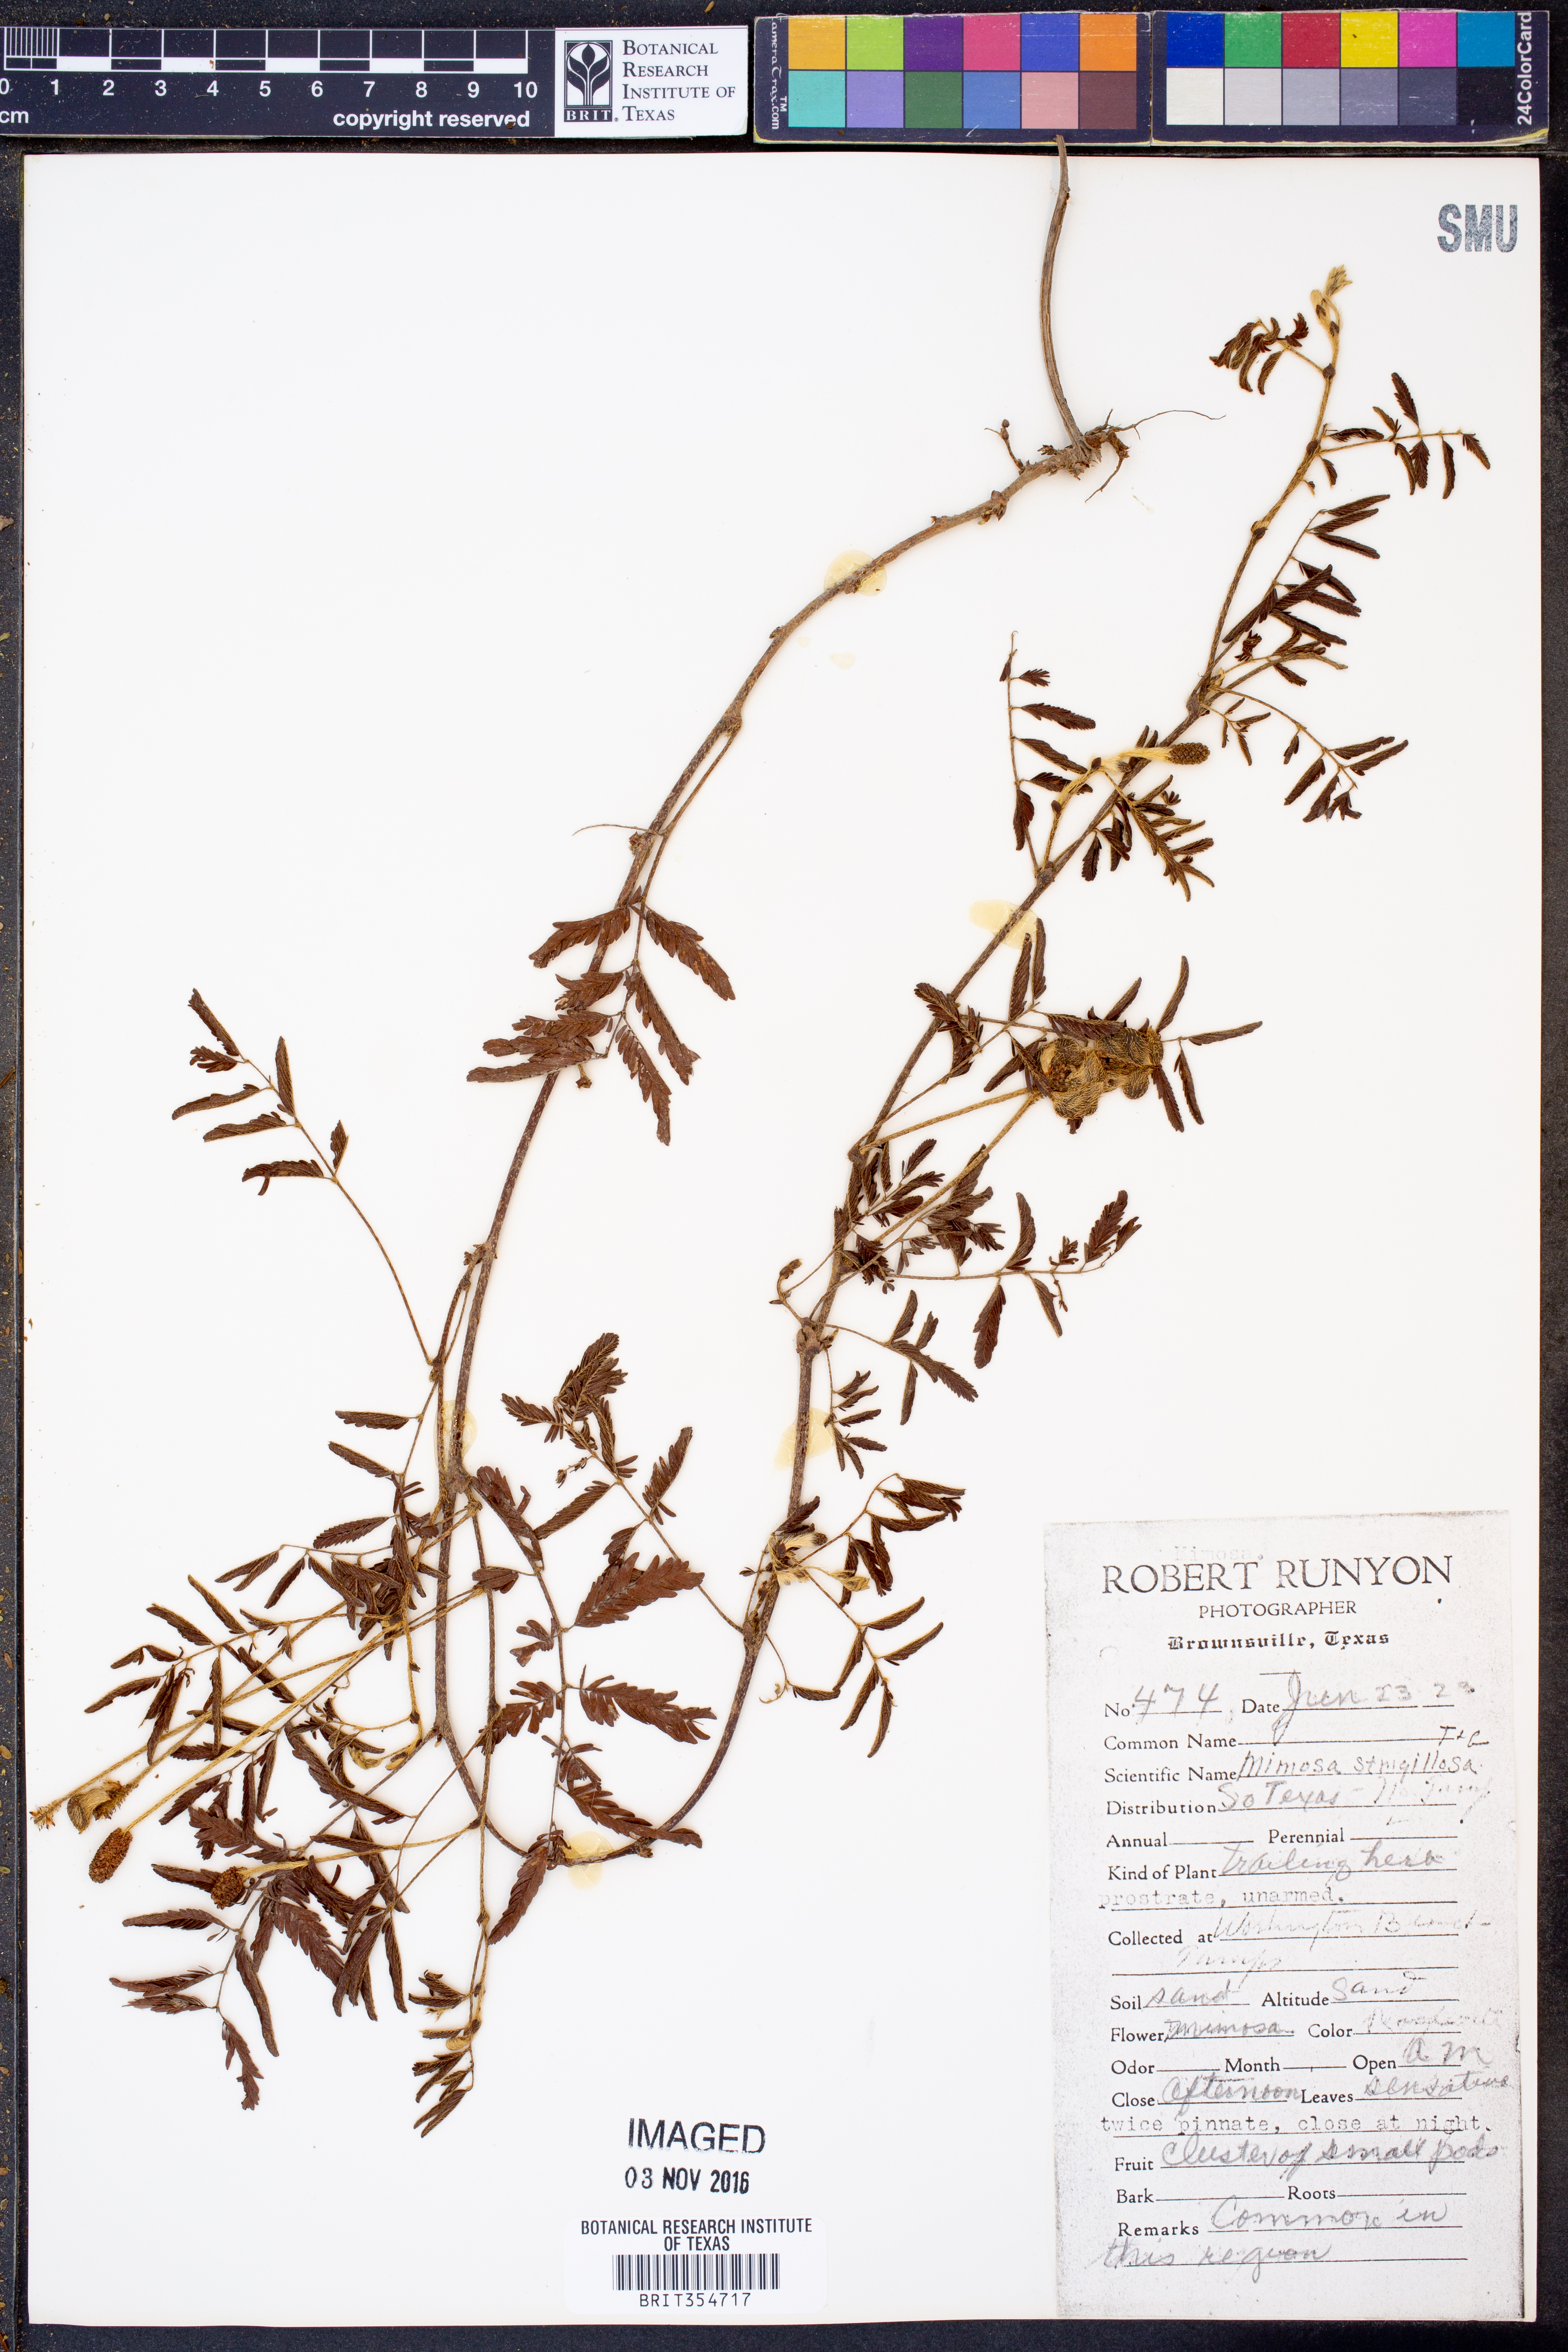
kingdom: Plantae
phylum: Tracheophyta
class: Magnoliopsida
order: Fabales
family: Fabaceae
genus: Mimosa
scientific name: Mimosa strigillosa
